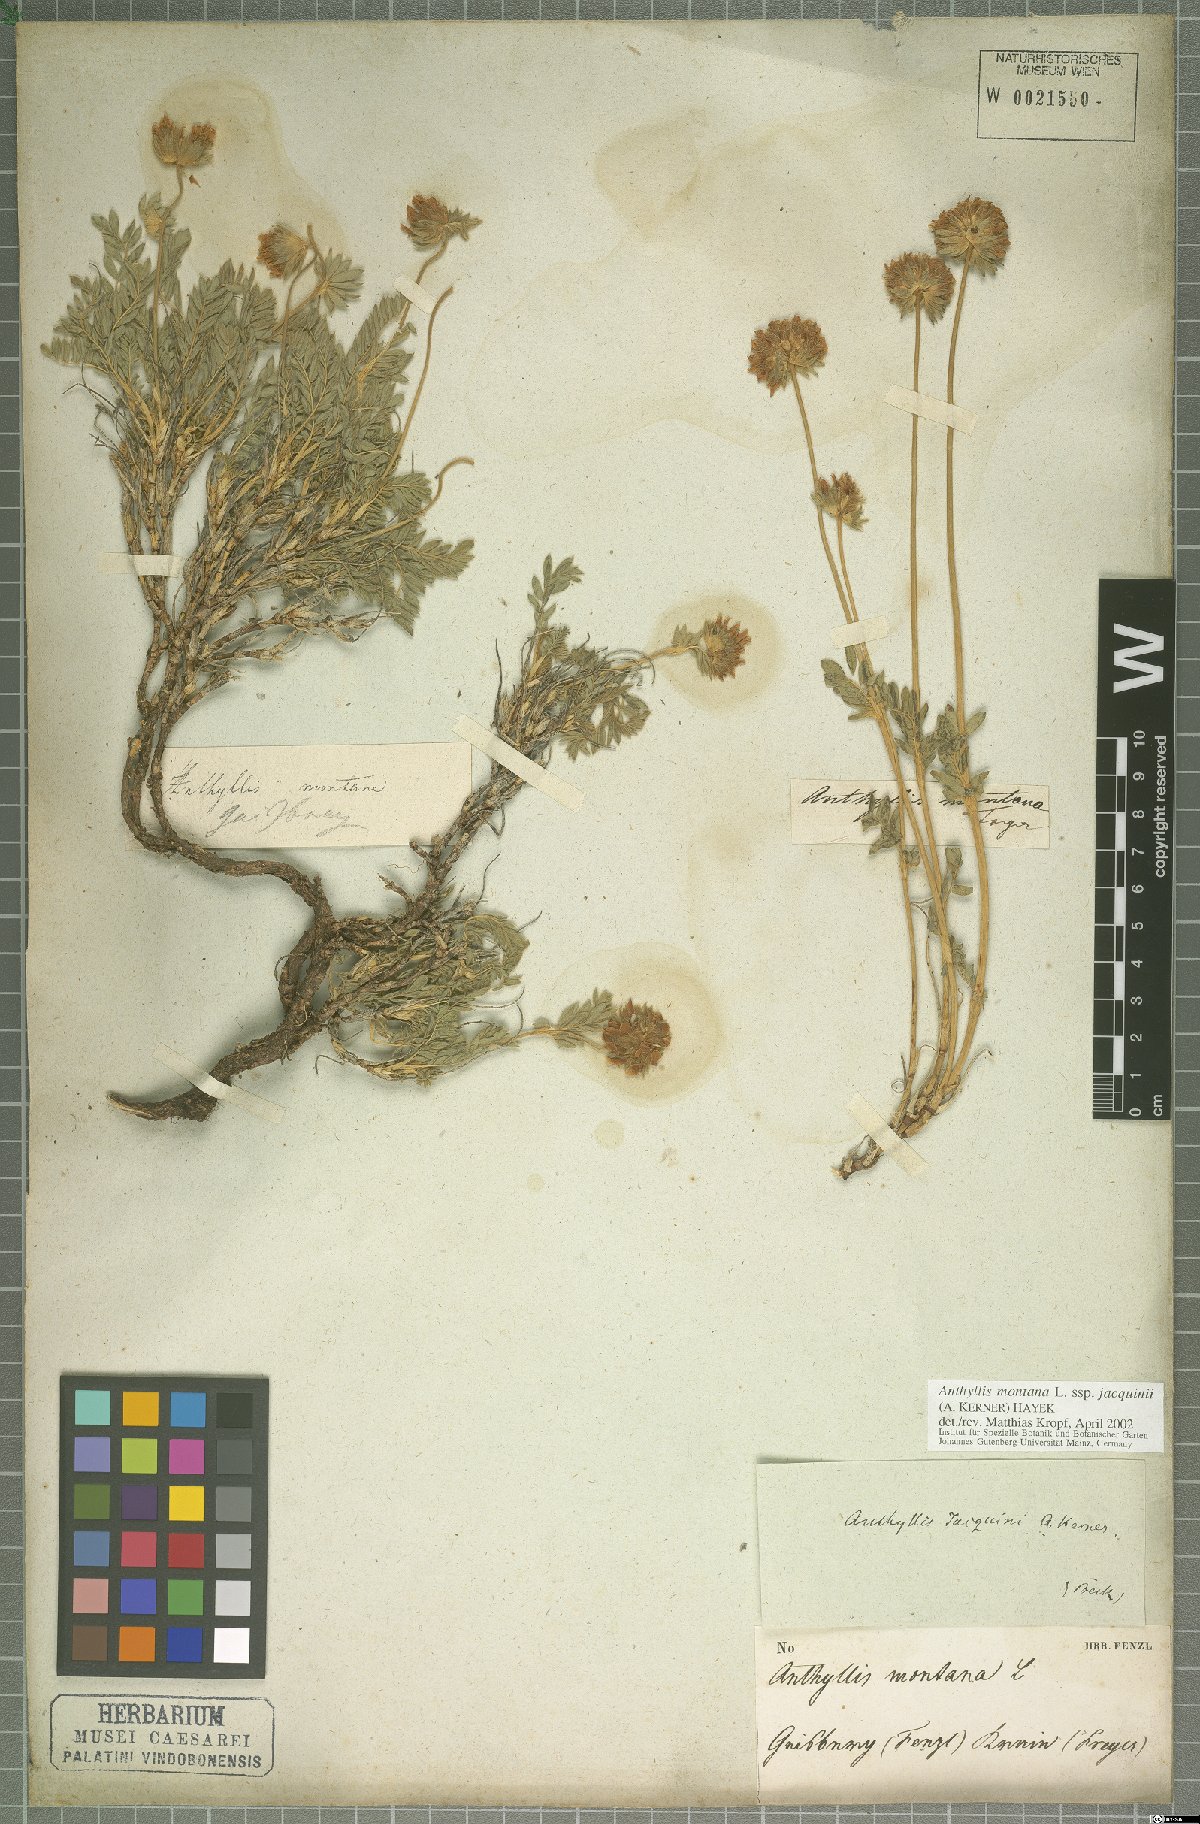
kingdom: Plantae
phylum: Tracheophyta
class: Magnoliopsida
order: Fabales
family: Fabaceae
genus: Anthyllis
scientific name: Anthyllis montana
